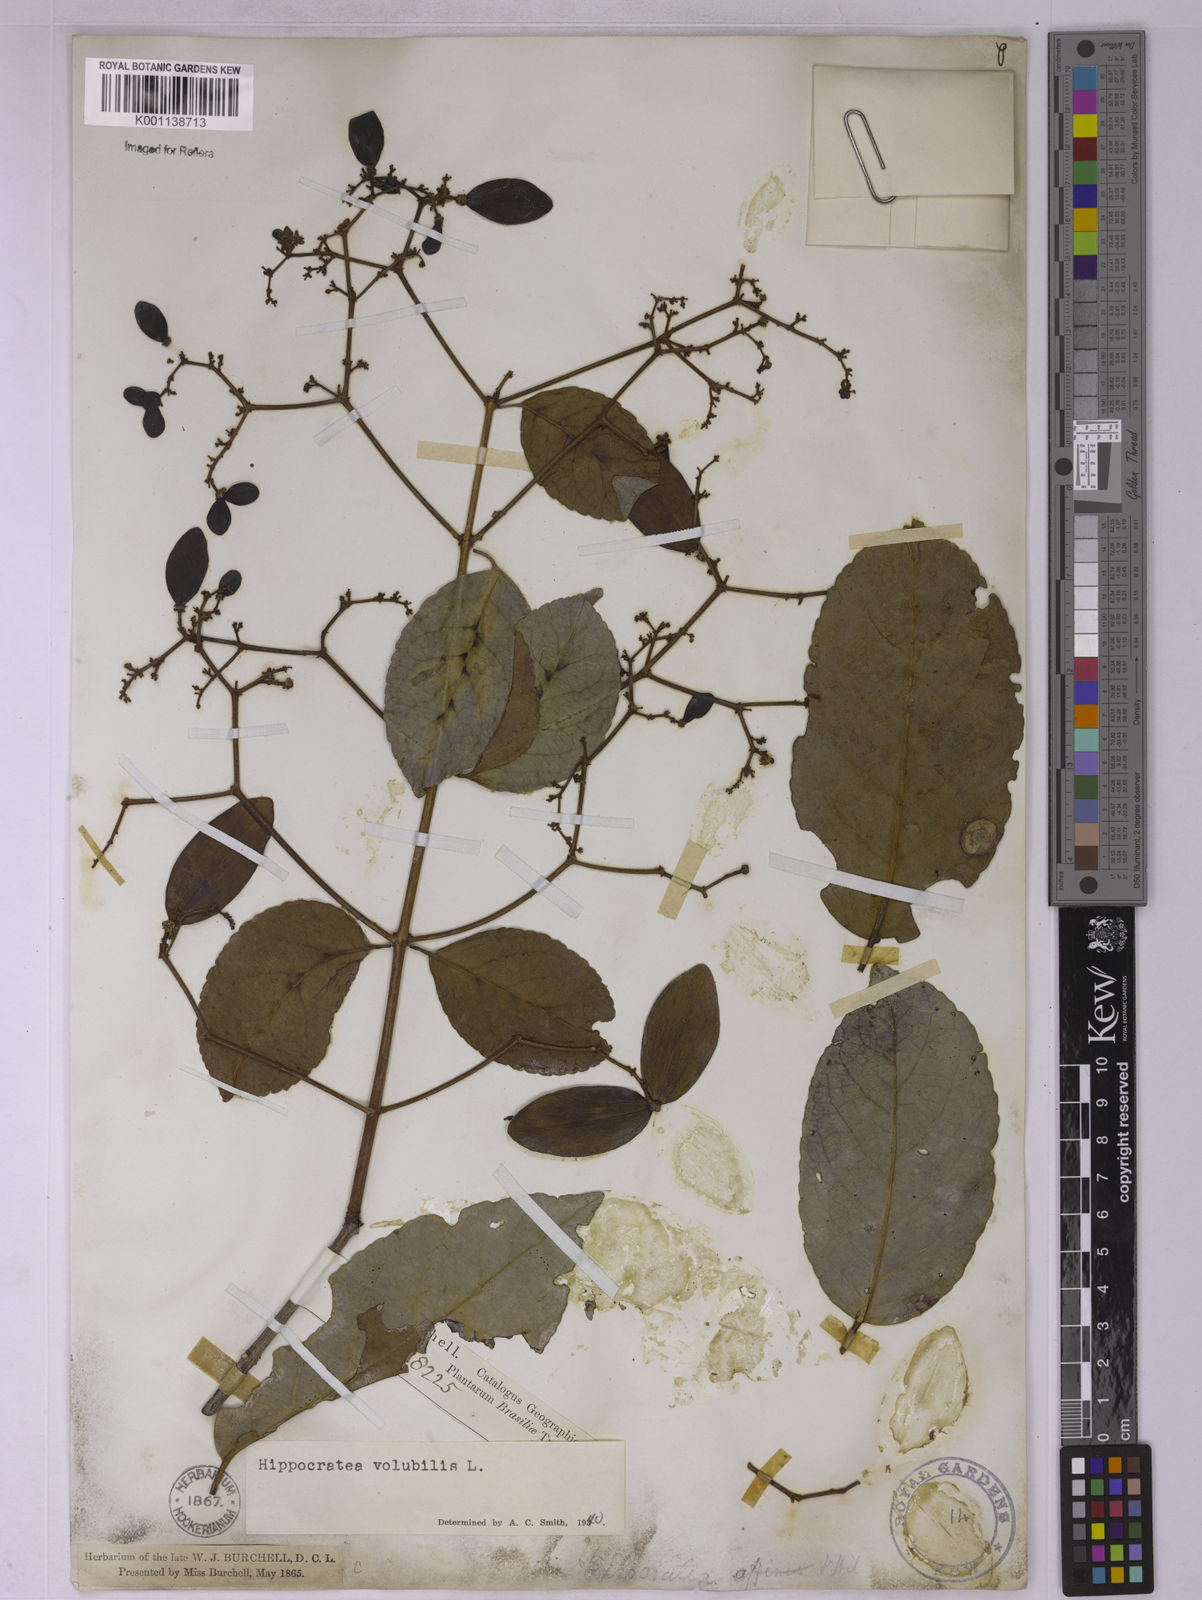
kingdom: Plantae
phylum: Tracheophyta
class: Magnoliopsida
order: Celastrales
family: Celastraceae
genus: Hippocratea
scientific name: Hippocratea volubilis
